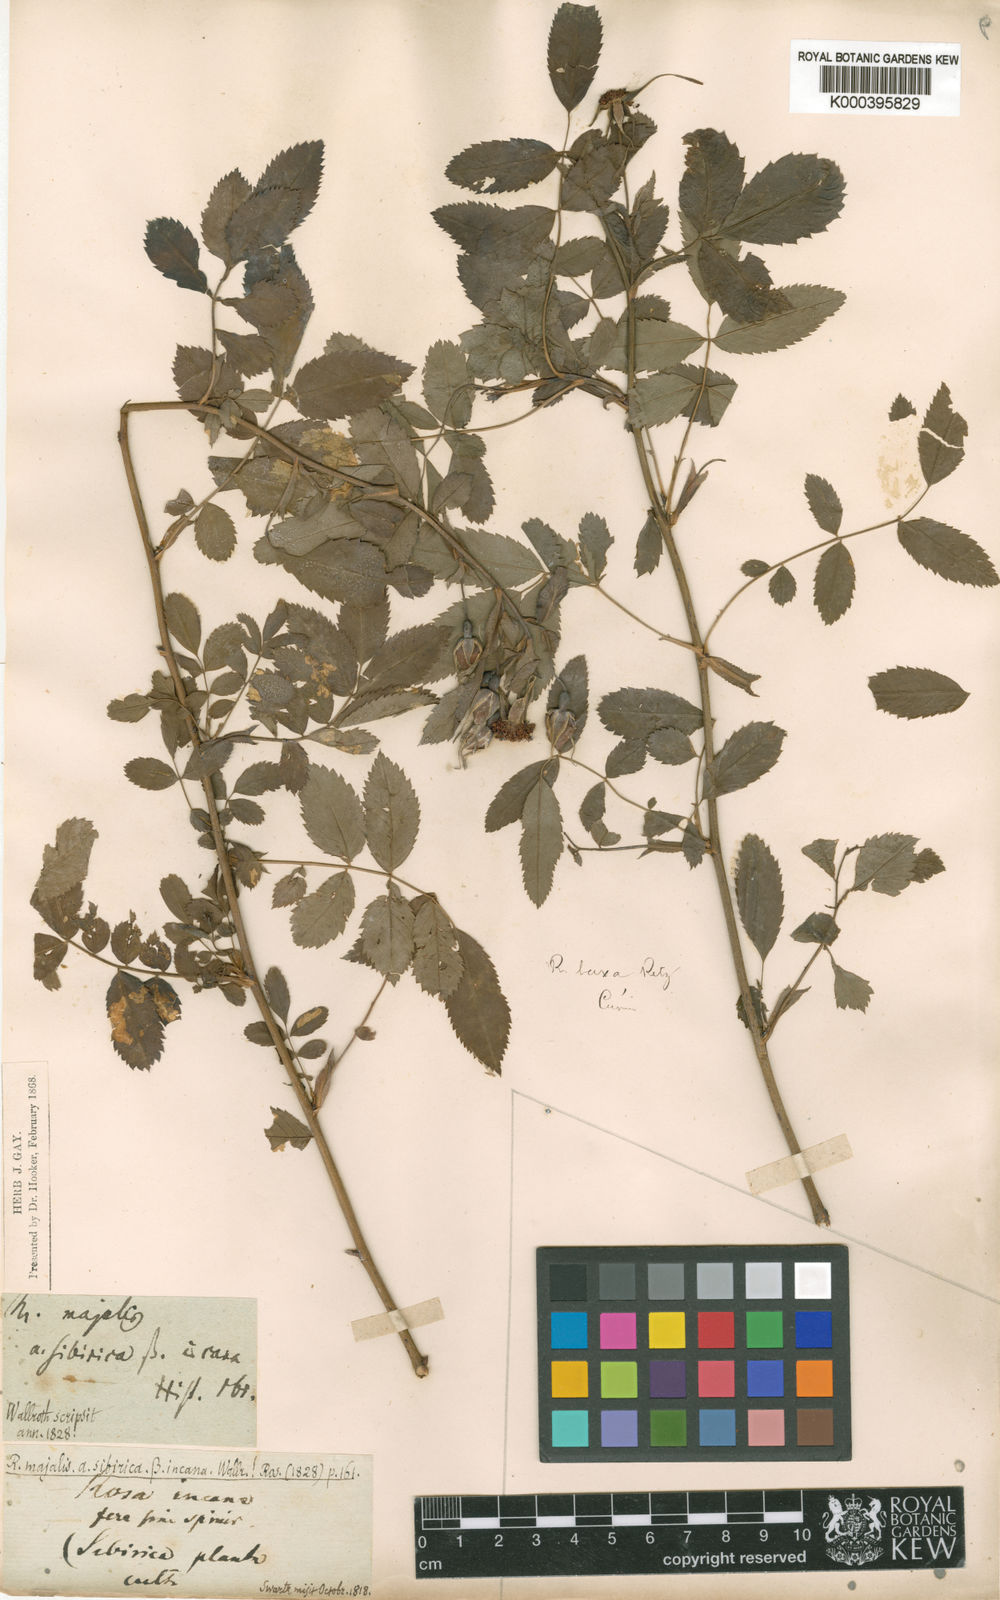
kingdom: Plantae
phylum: Tracheophyta
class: Magnoliopsida
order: Rosales
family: Rosaceae
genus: Rosa
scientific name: Rosa laxa
